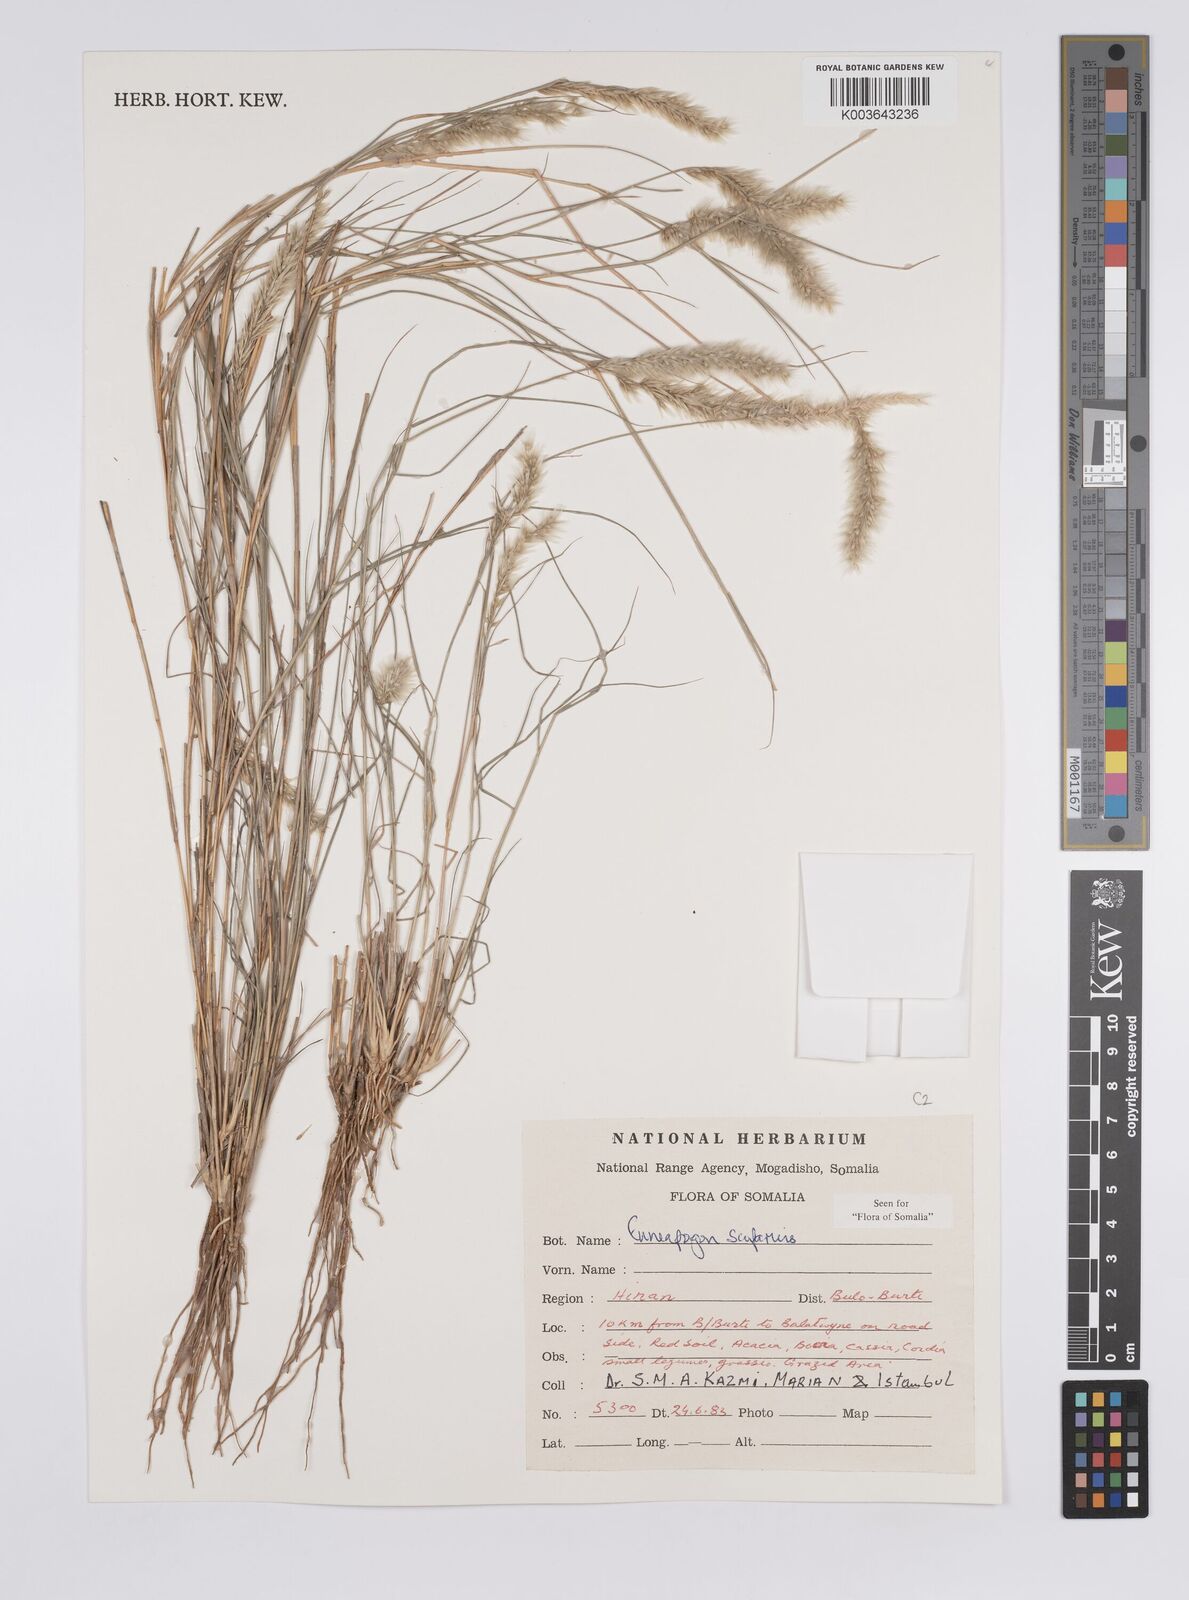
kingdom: Plantae
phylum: Tracheophyta
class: Liliopsida
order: Poales
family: Poaceae
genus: Enneapogon
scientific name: Enneapogon scoparius
